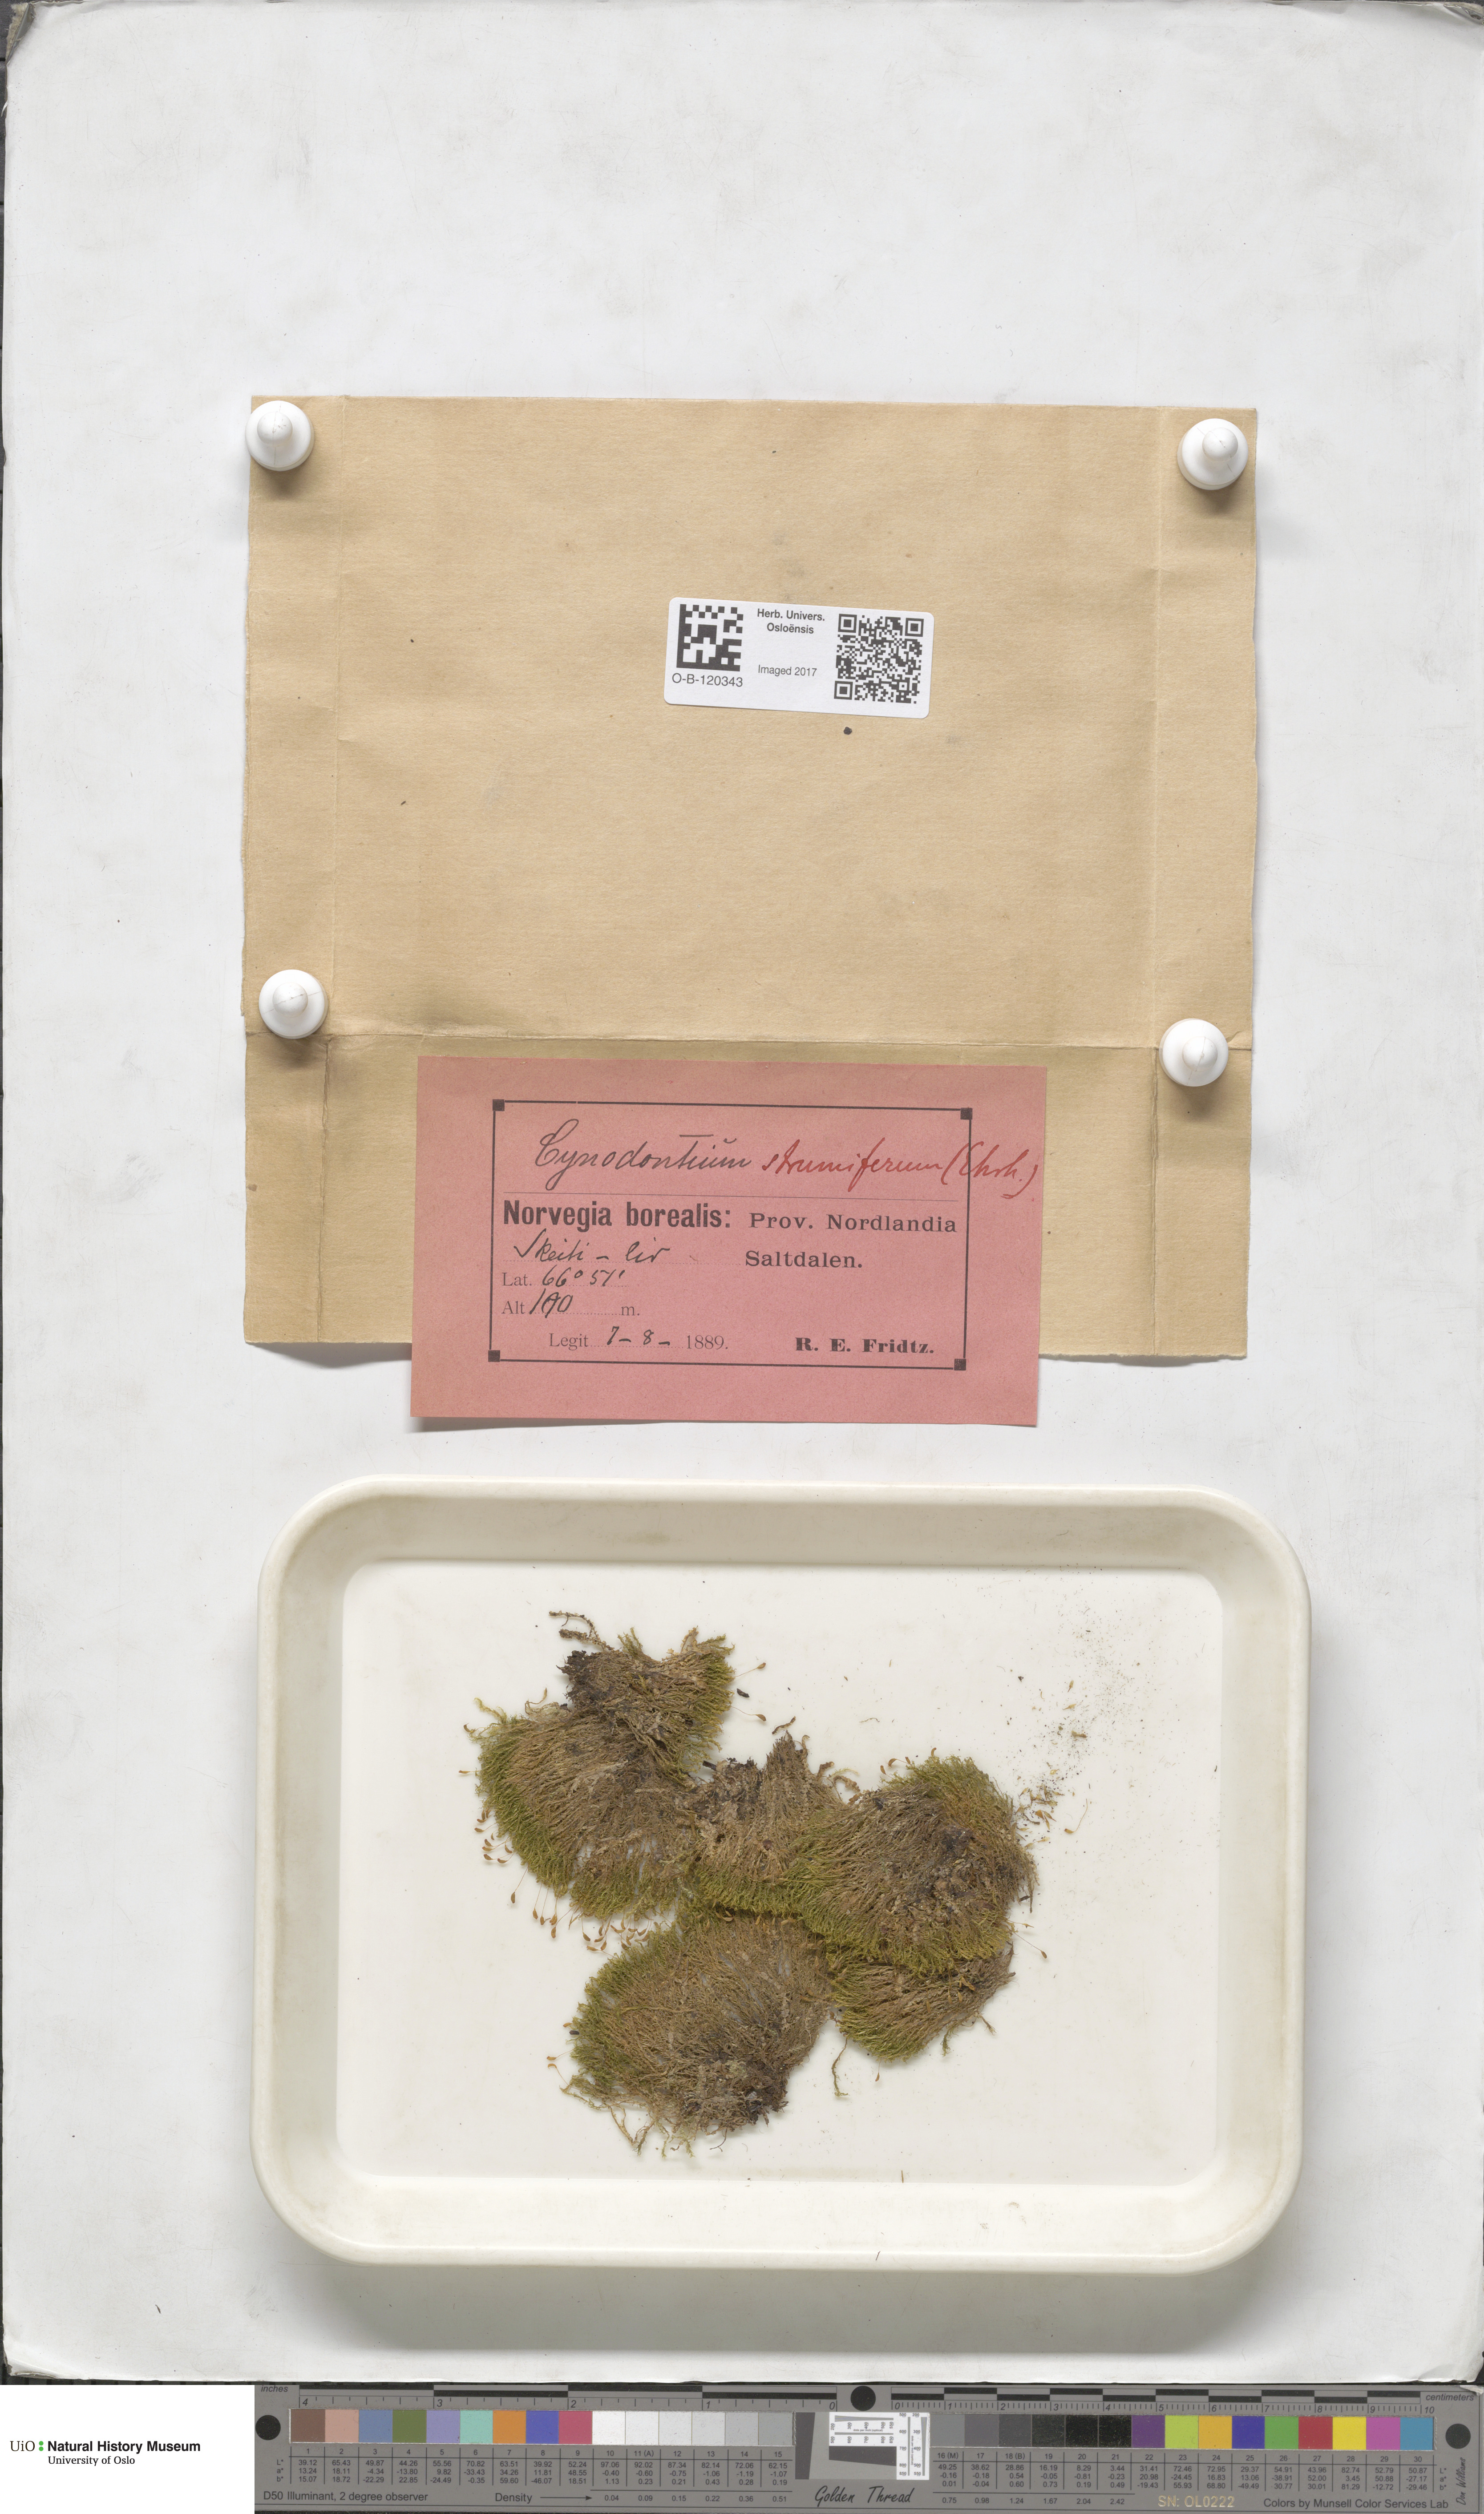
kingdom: Plantae
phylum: Bryophyta
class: Bryopsida
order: Dicranales
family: Rhabdoweisiaceae
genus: Cynodontium
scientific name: Cynodontium strumiferum
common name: Swollen dogtooth moss
